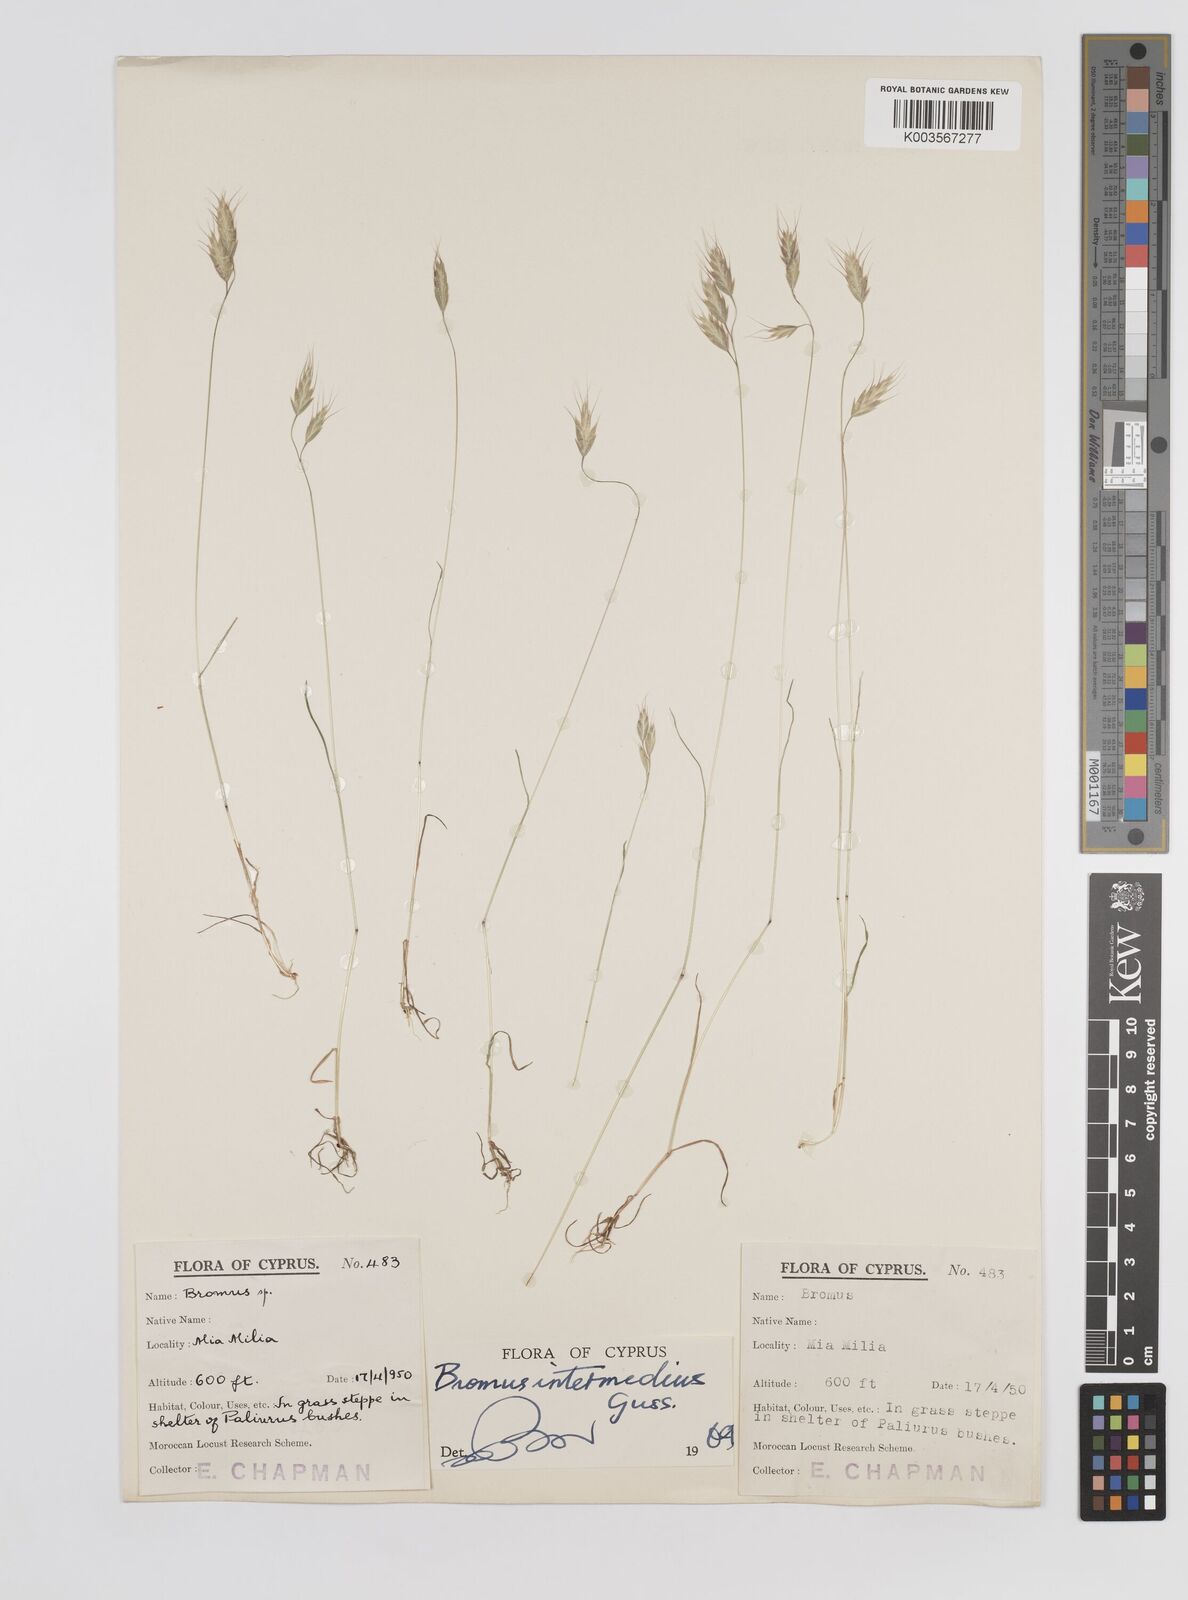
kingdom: Plantae
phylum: Tracheophyta
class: Liliopsida
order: Poales
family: Poaceae
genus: Bromus
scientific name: Bromus intermedius
